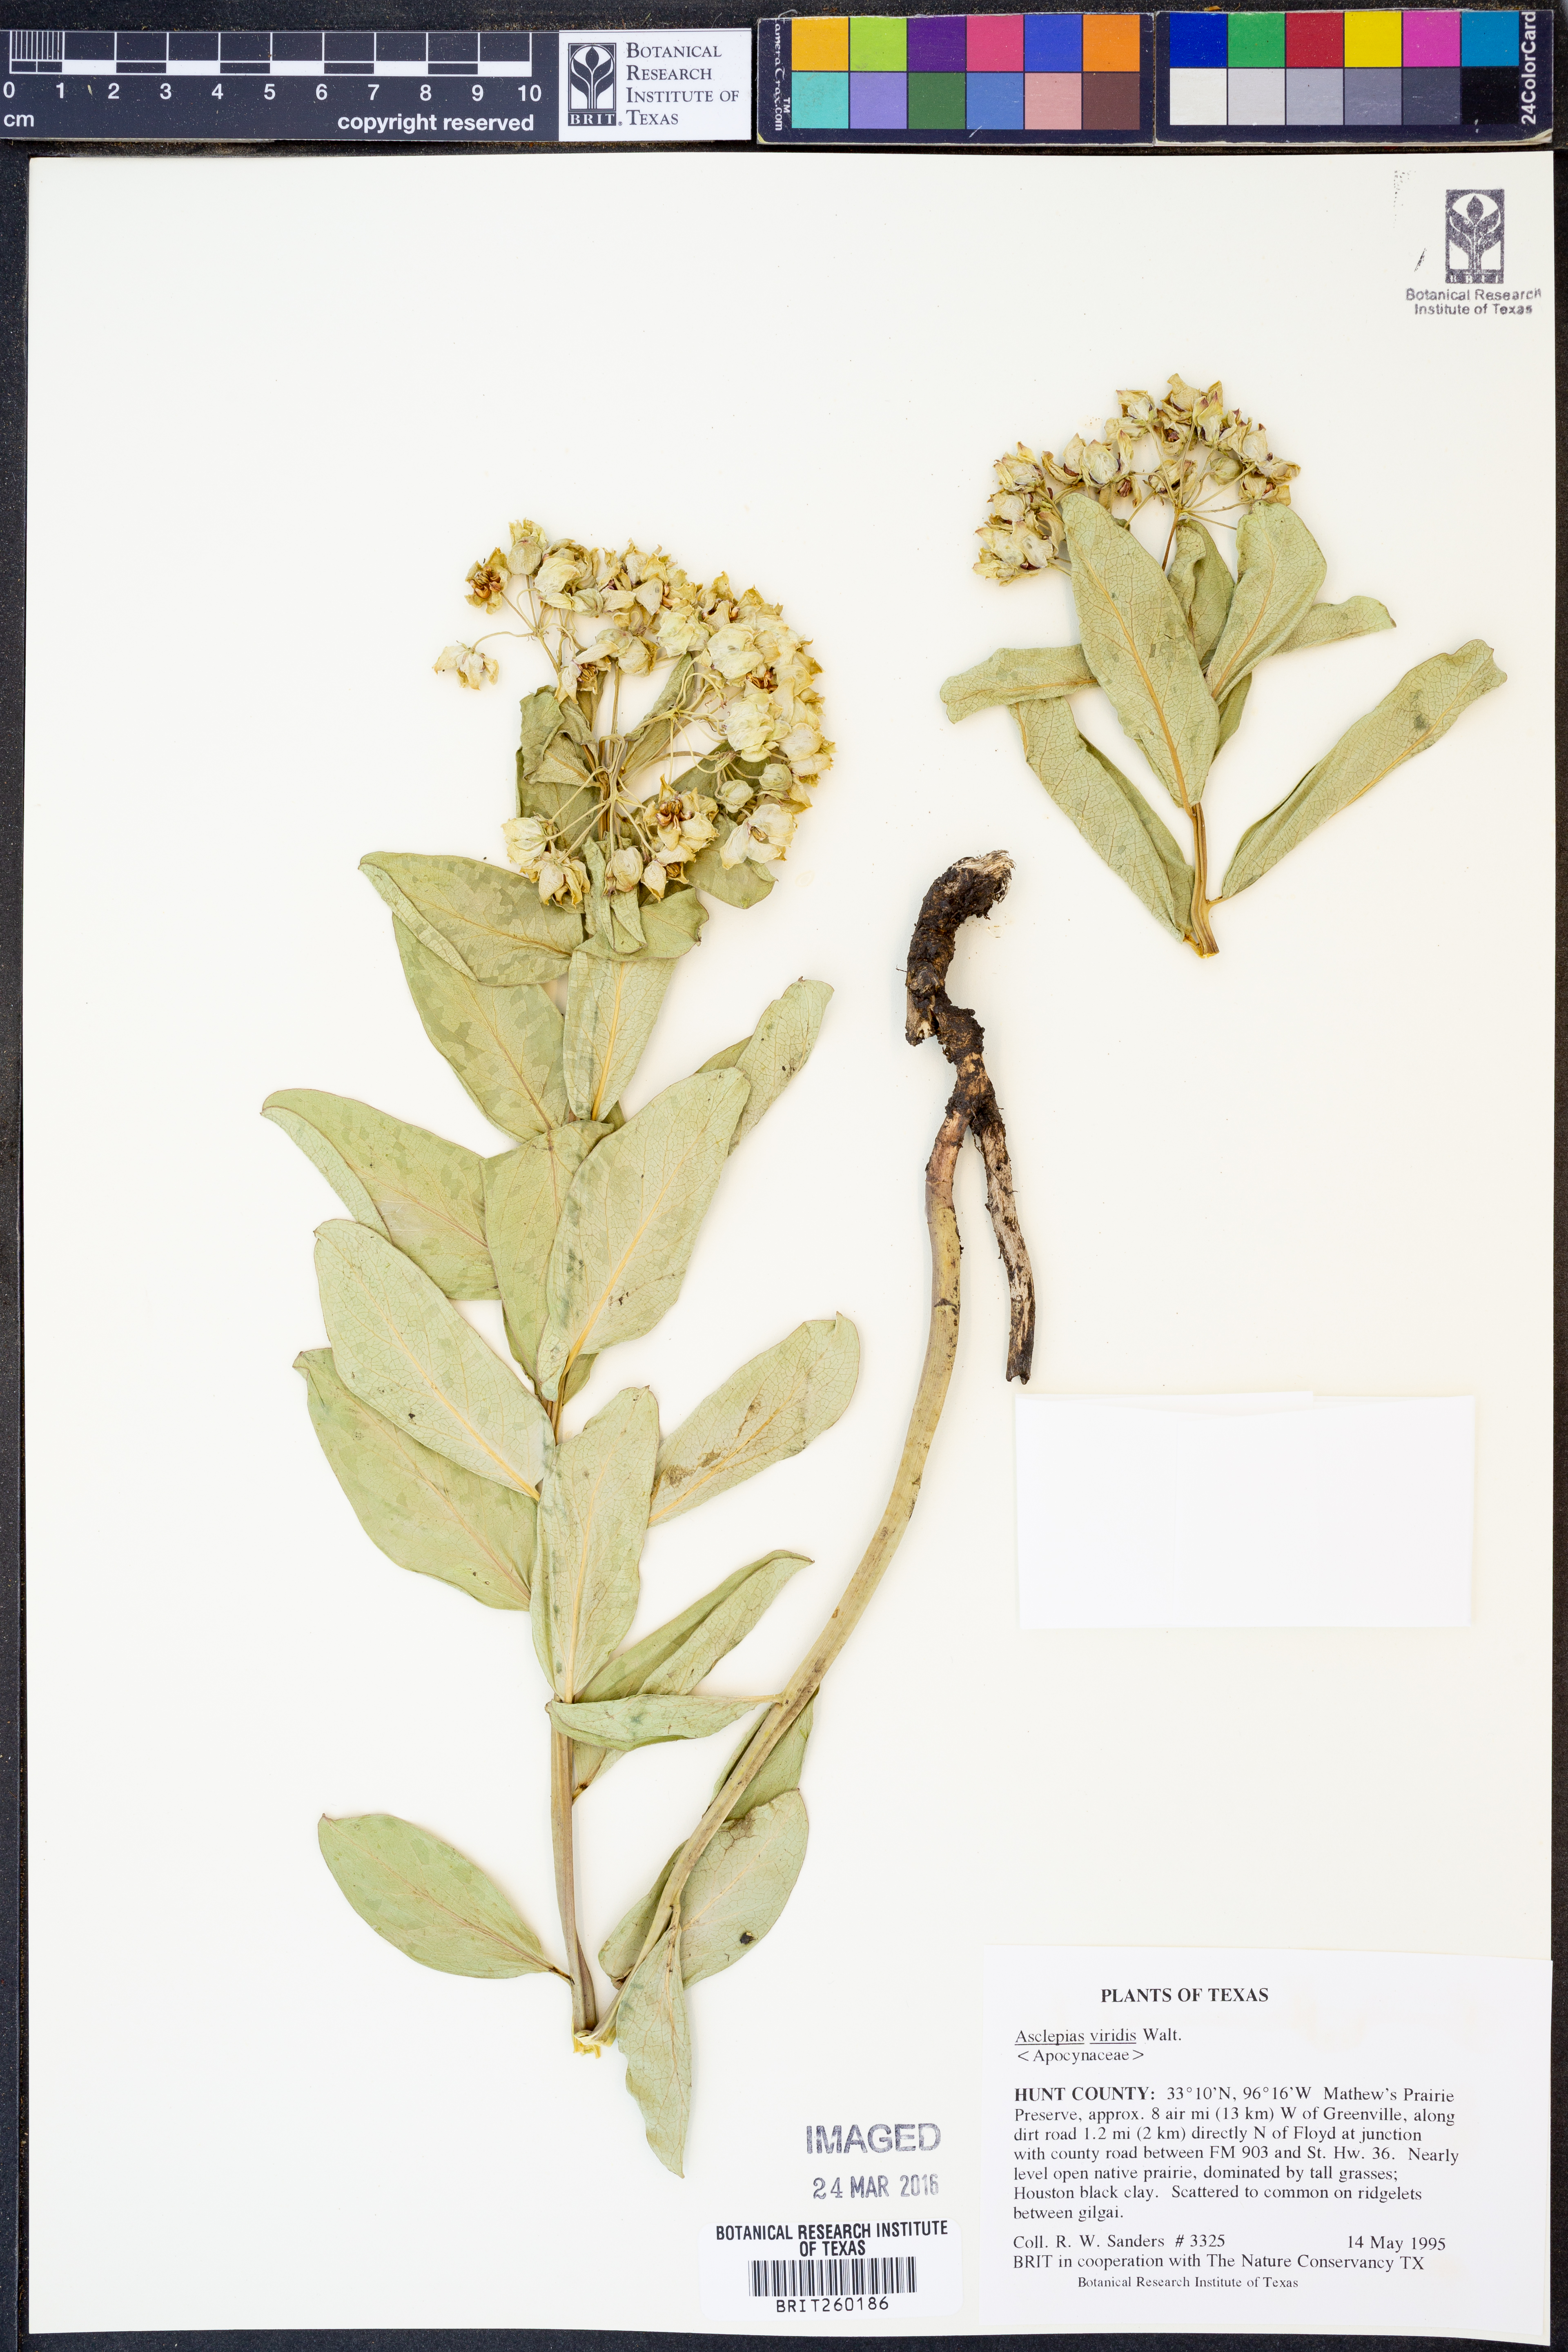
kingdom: Plantae
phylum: Tracheophyta
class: Magnoliopsida
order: Gentianales
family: Apocynaceae
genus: Asclepias
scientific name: Asclepias viridis
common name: Antelope-horns
